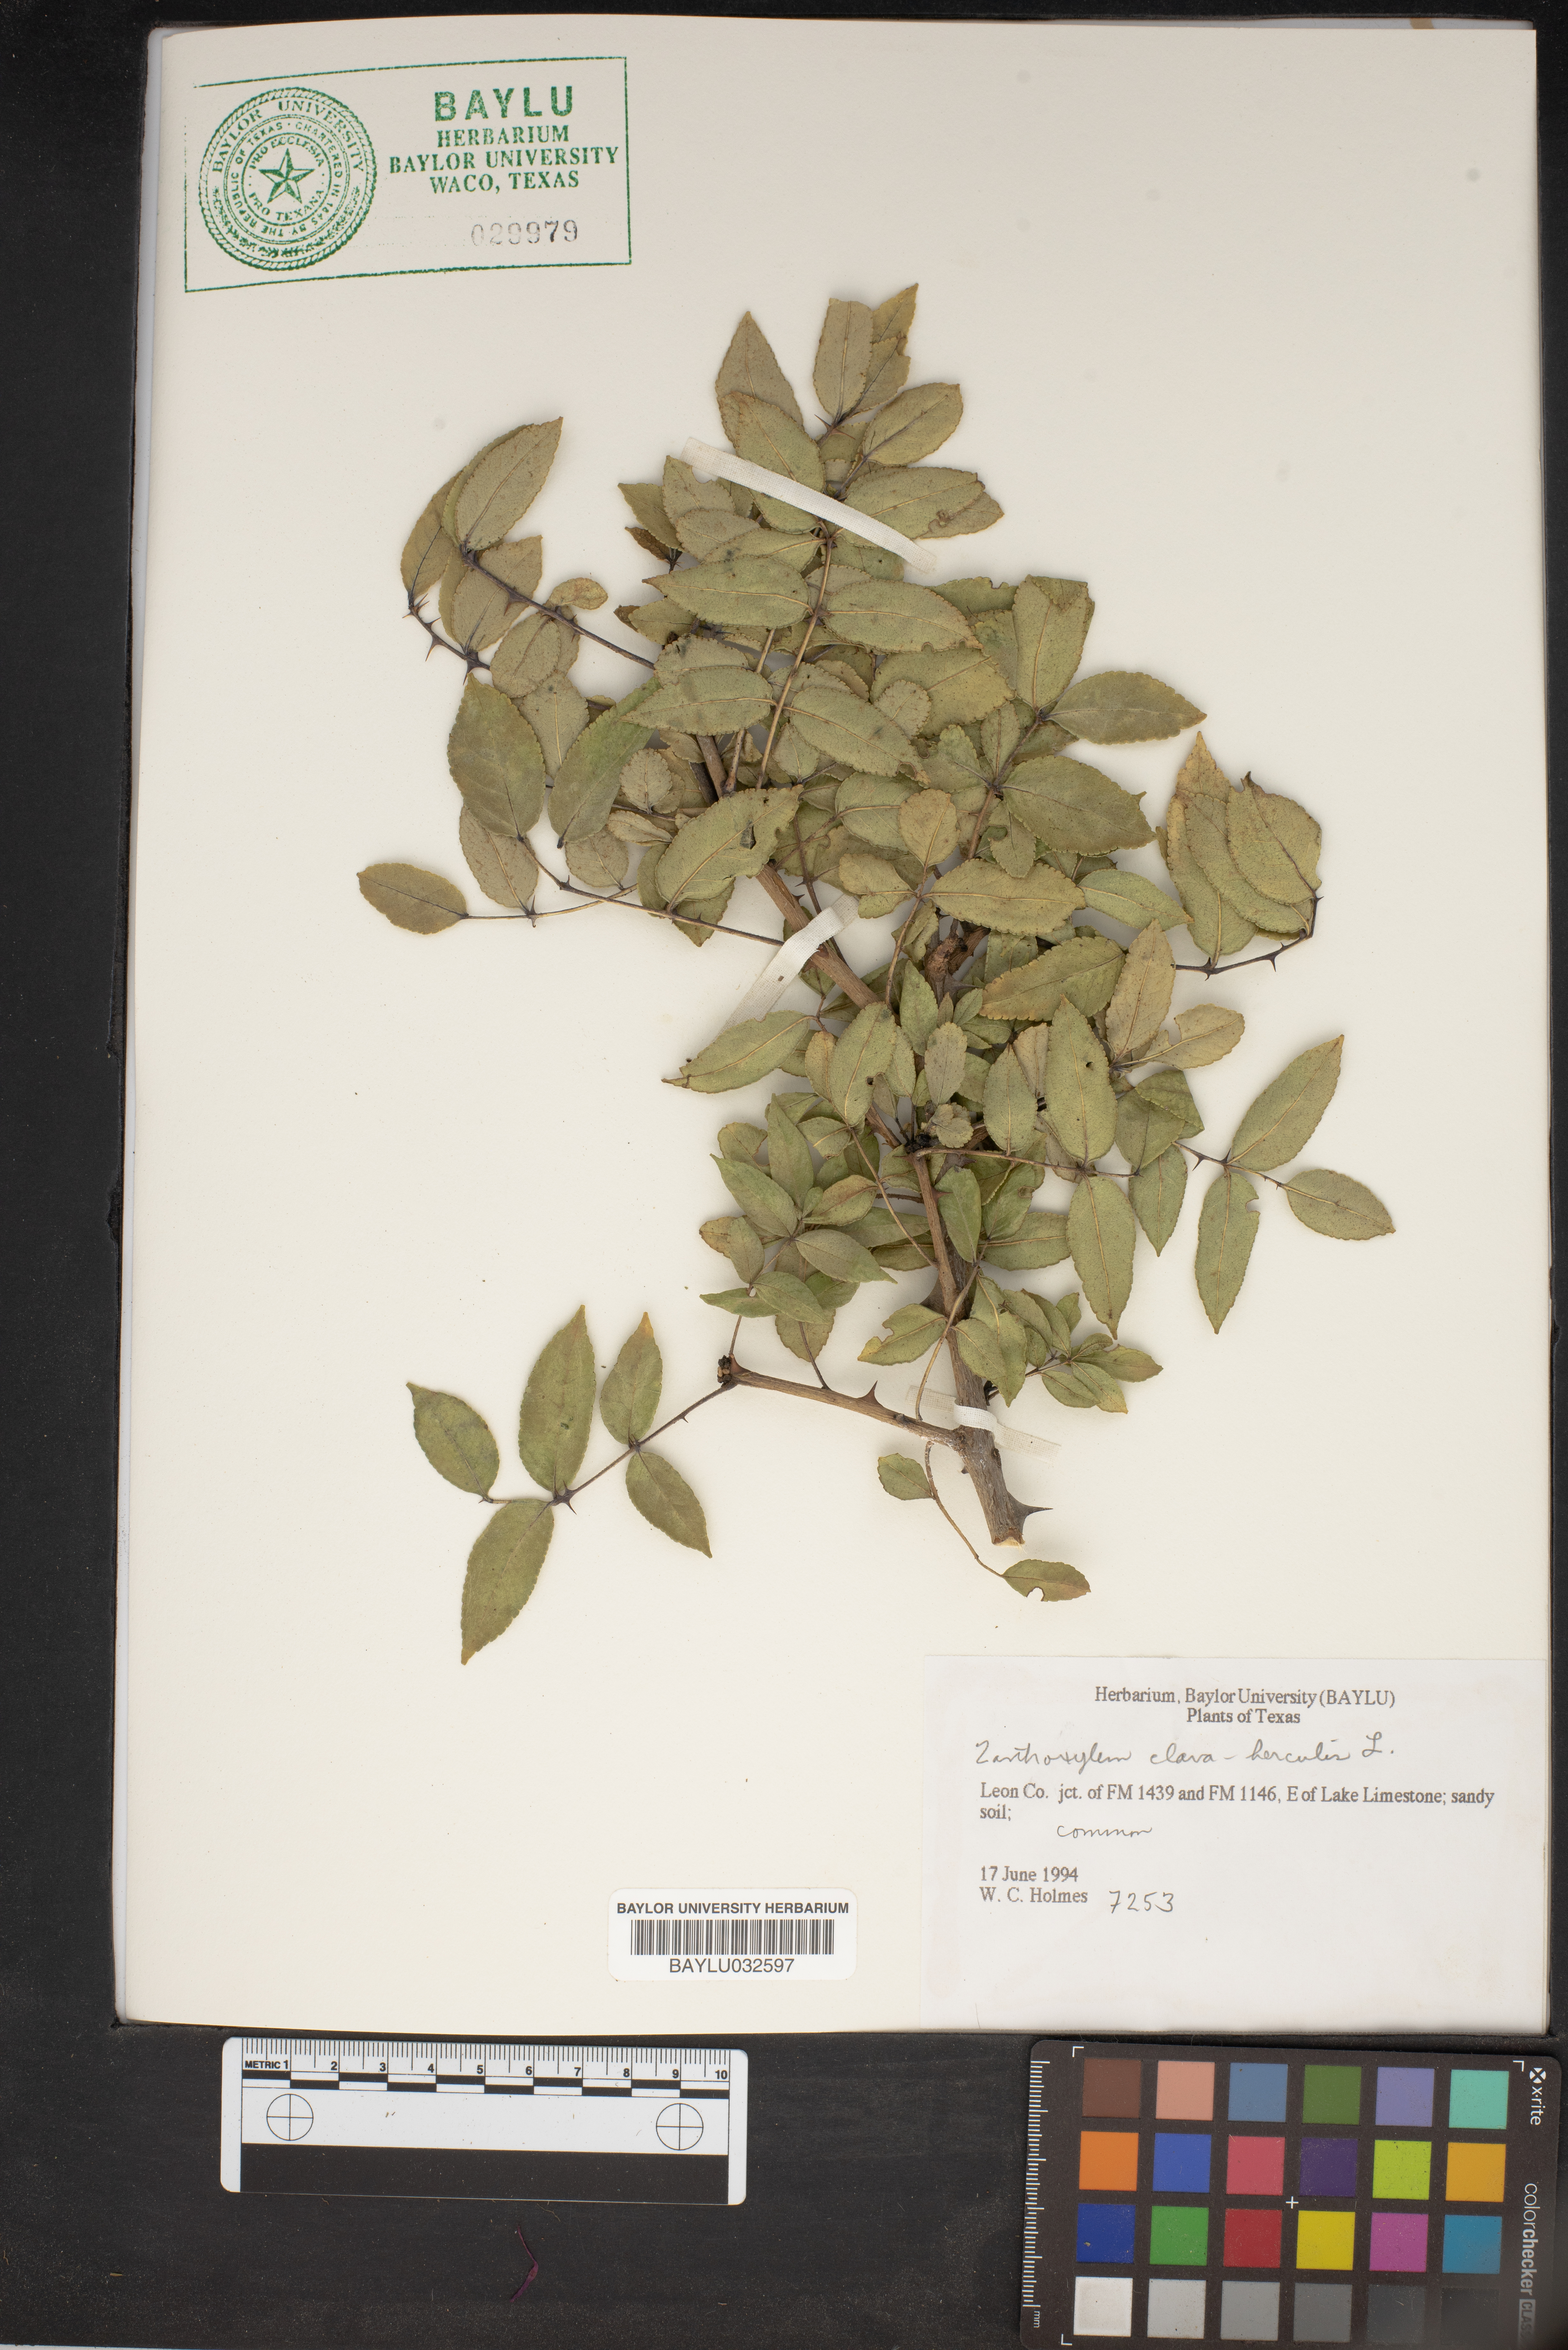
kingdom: Plantae
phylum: Tracheophyta
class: Magnoliopsida
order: Sapindales
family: Rutaceae
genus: Zanthoxylum
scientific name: Zanthoxylum avicennae
